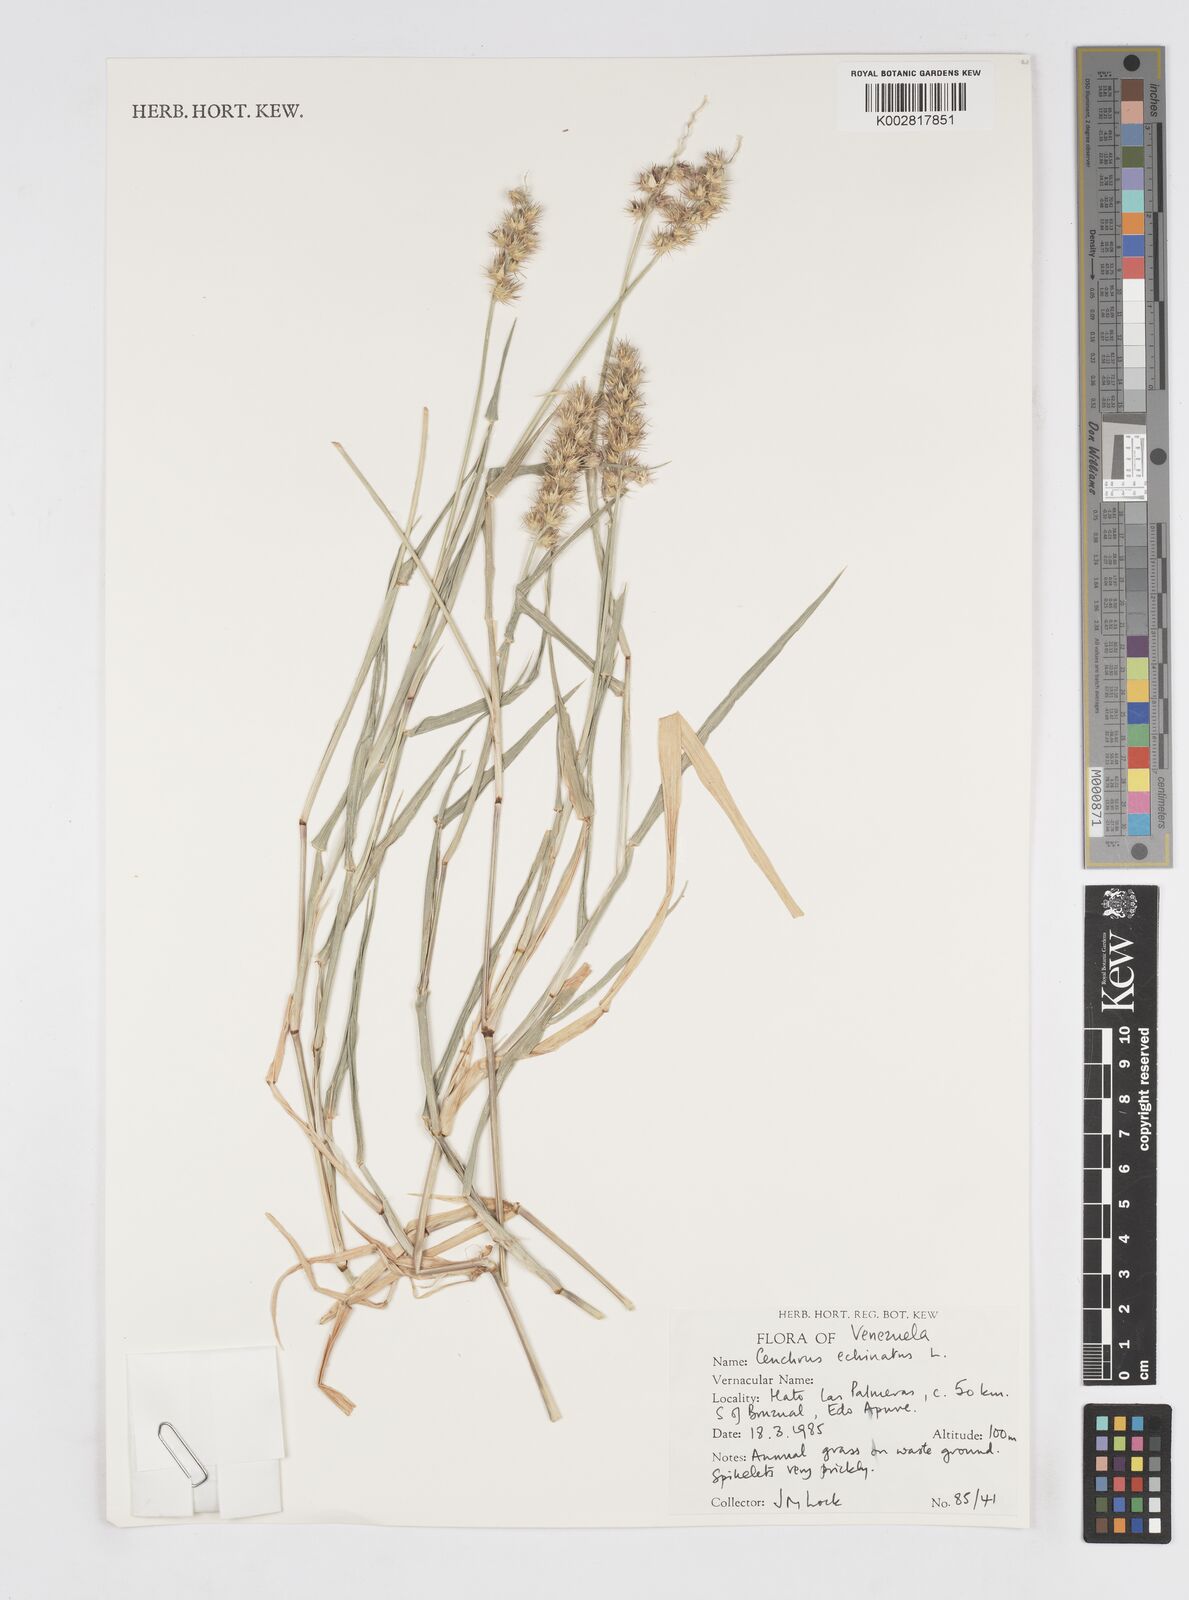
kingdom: Plantae
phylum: Tracheophyta
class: Liliopsida
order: Poales
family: Poaceae
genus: Cenchrus
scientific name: Cenchrus
